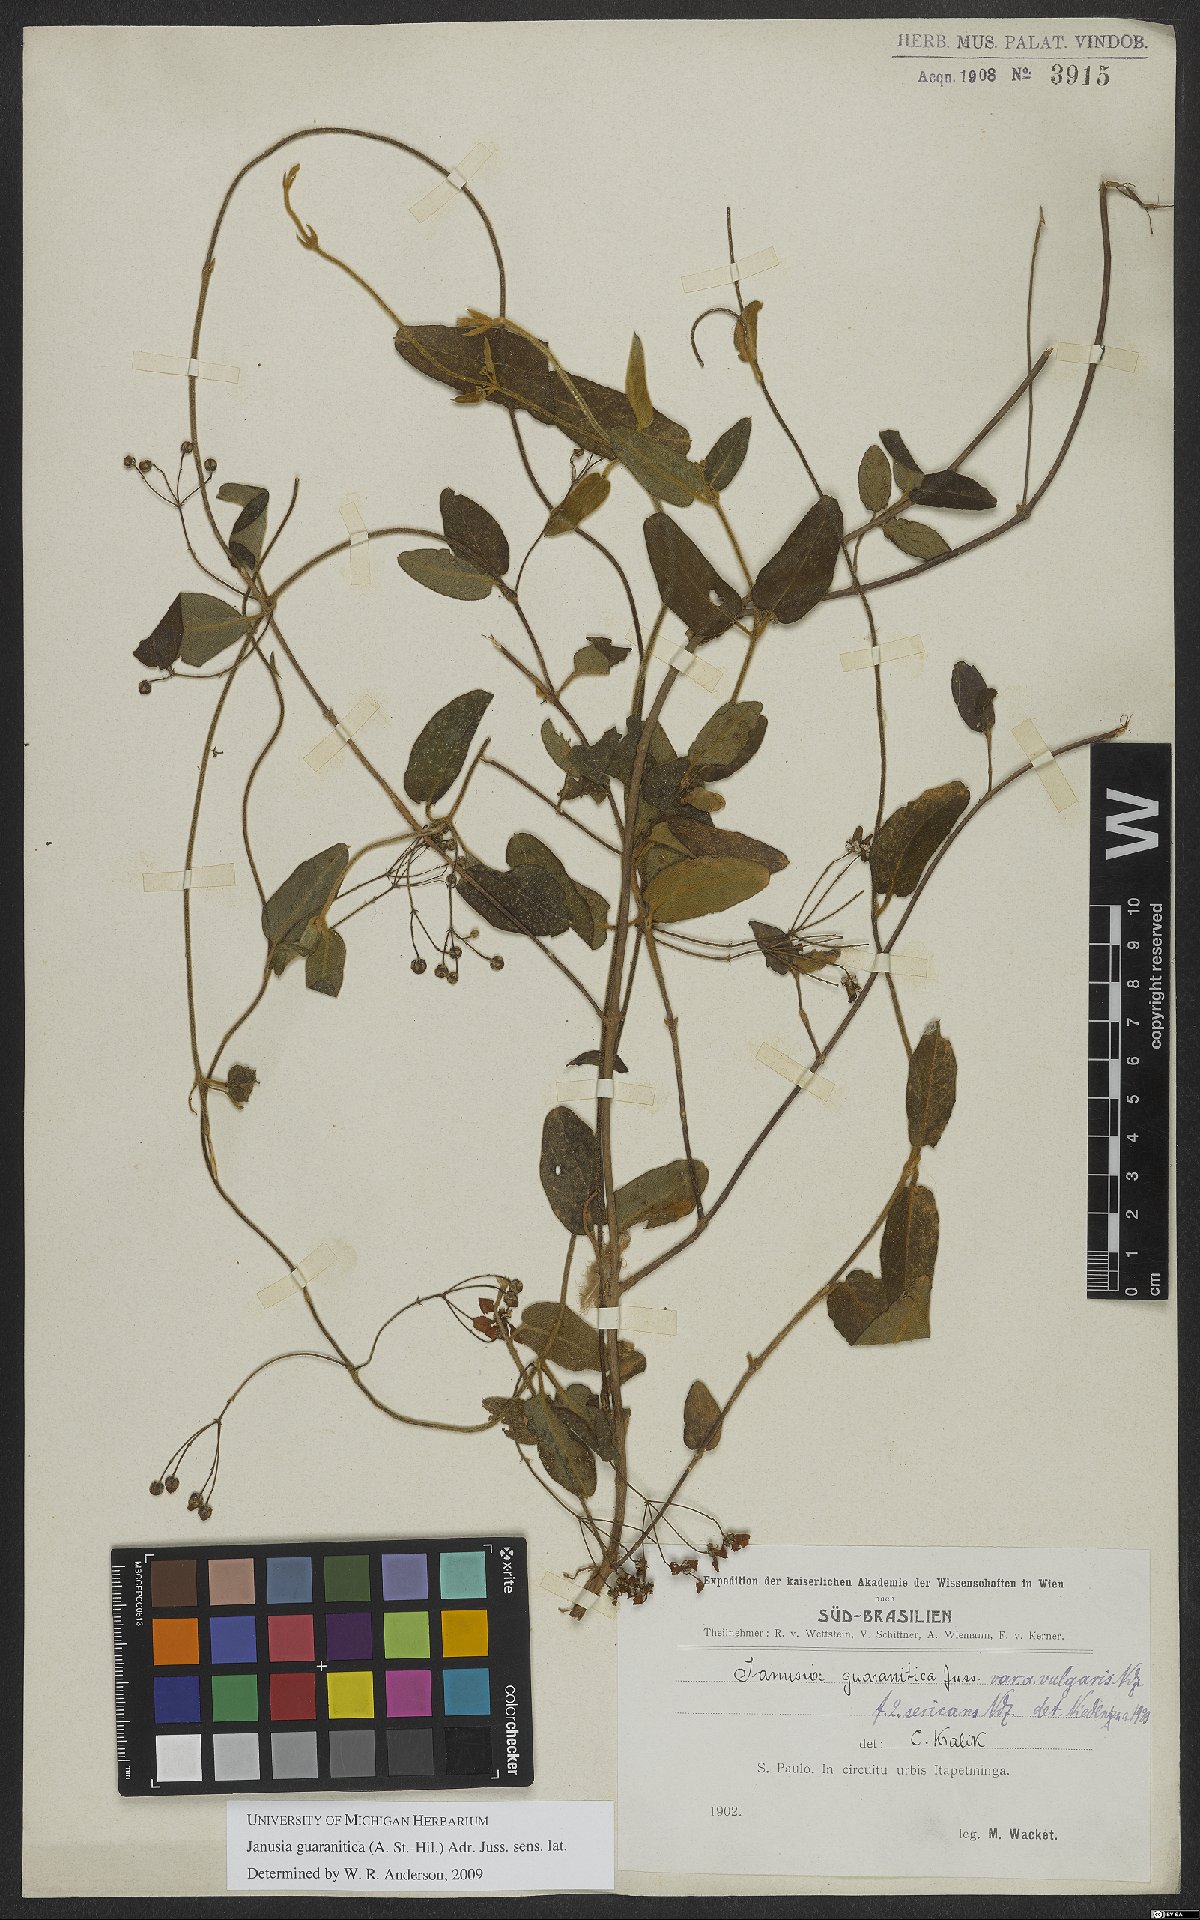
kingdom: Plantae
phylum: Tracheophyta
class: Magnoliopsida
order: Malpighiales
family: Malpighiaceae
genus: Janusia
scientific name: Janusia guaranitica
